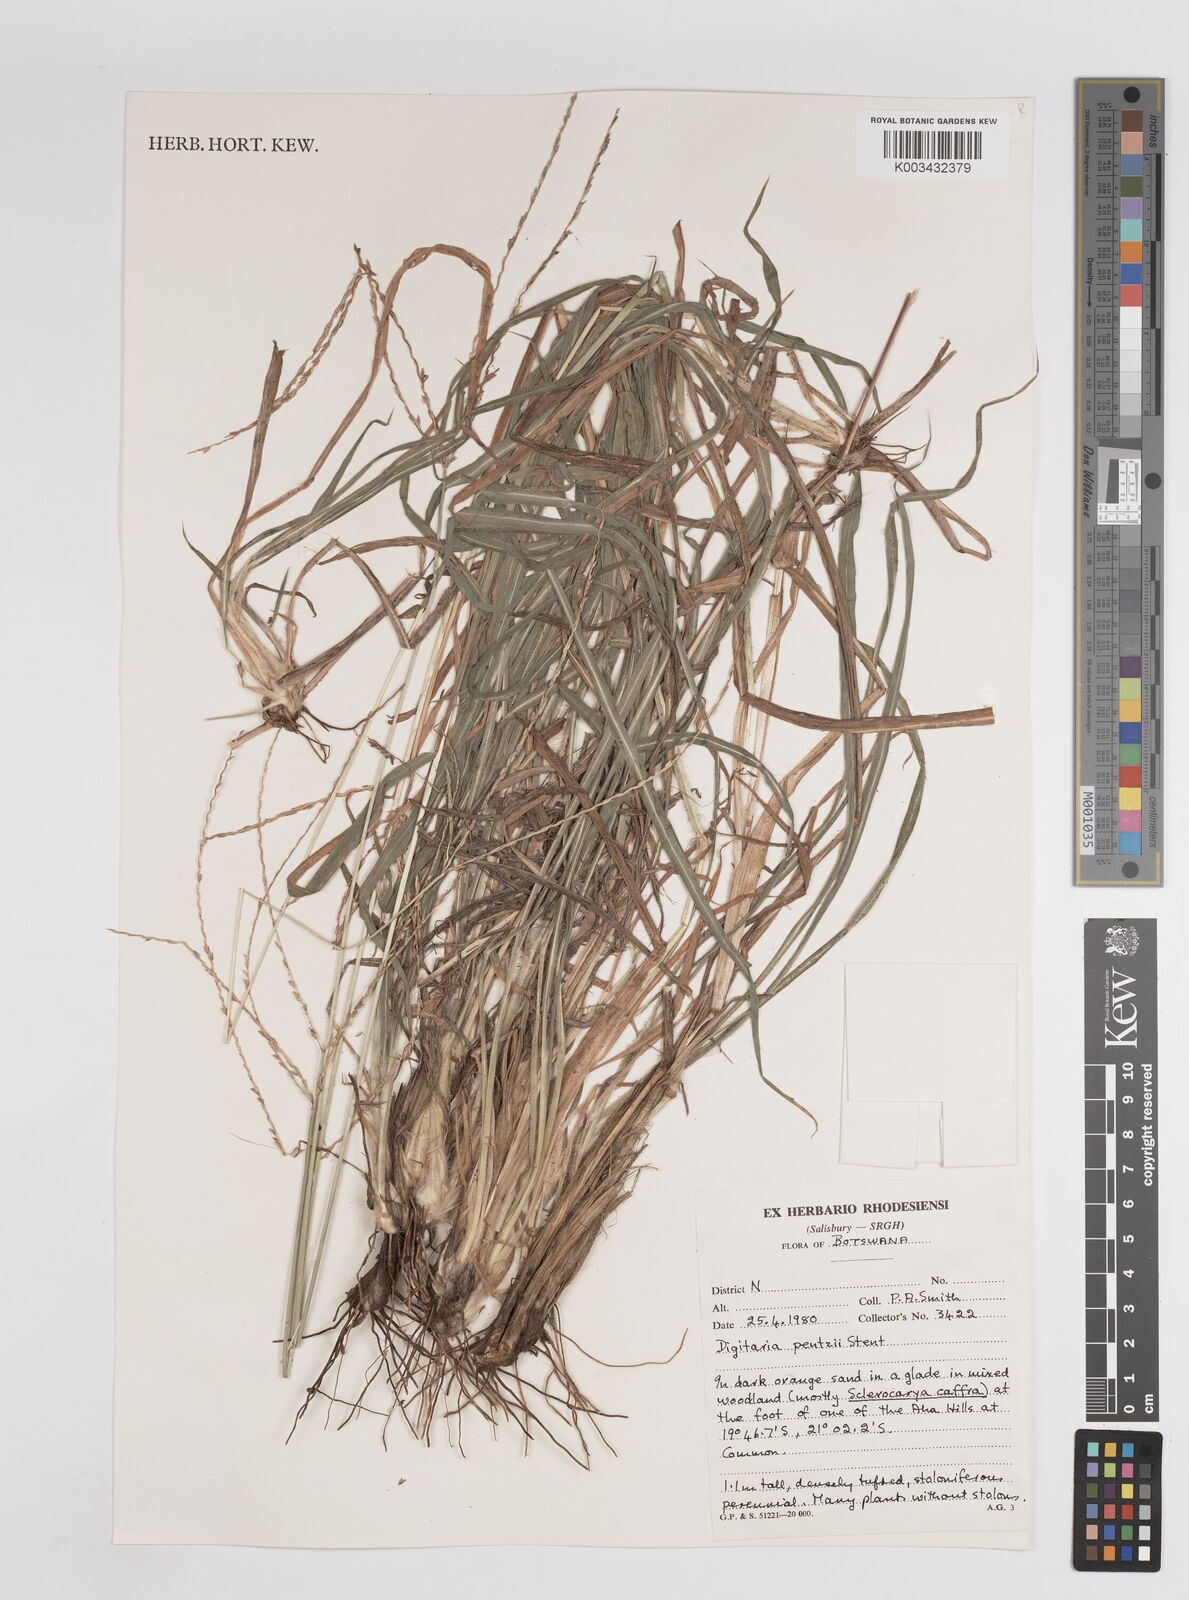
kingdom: Plantae
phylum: Tracheophyta
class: Liliopsida
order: Poales
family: Poaceae
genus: Digitaria
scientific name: Digitaria eriantha
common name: Digitgrass
